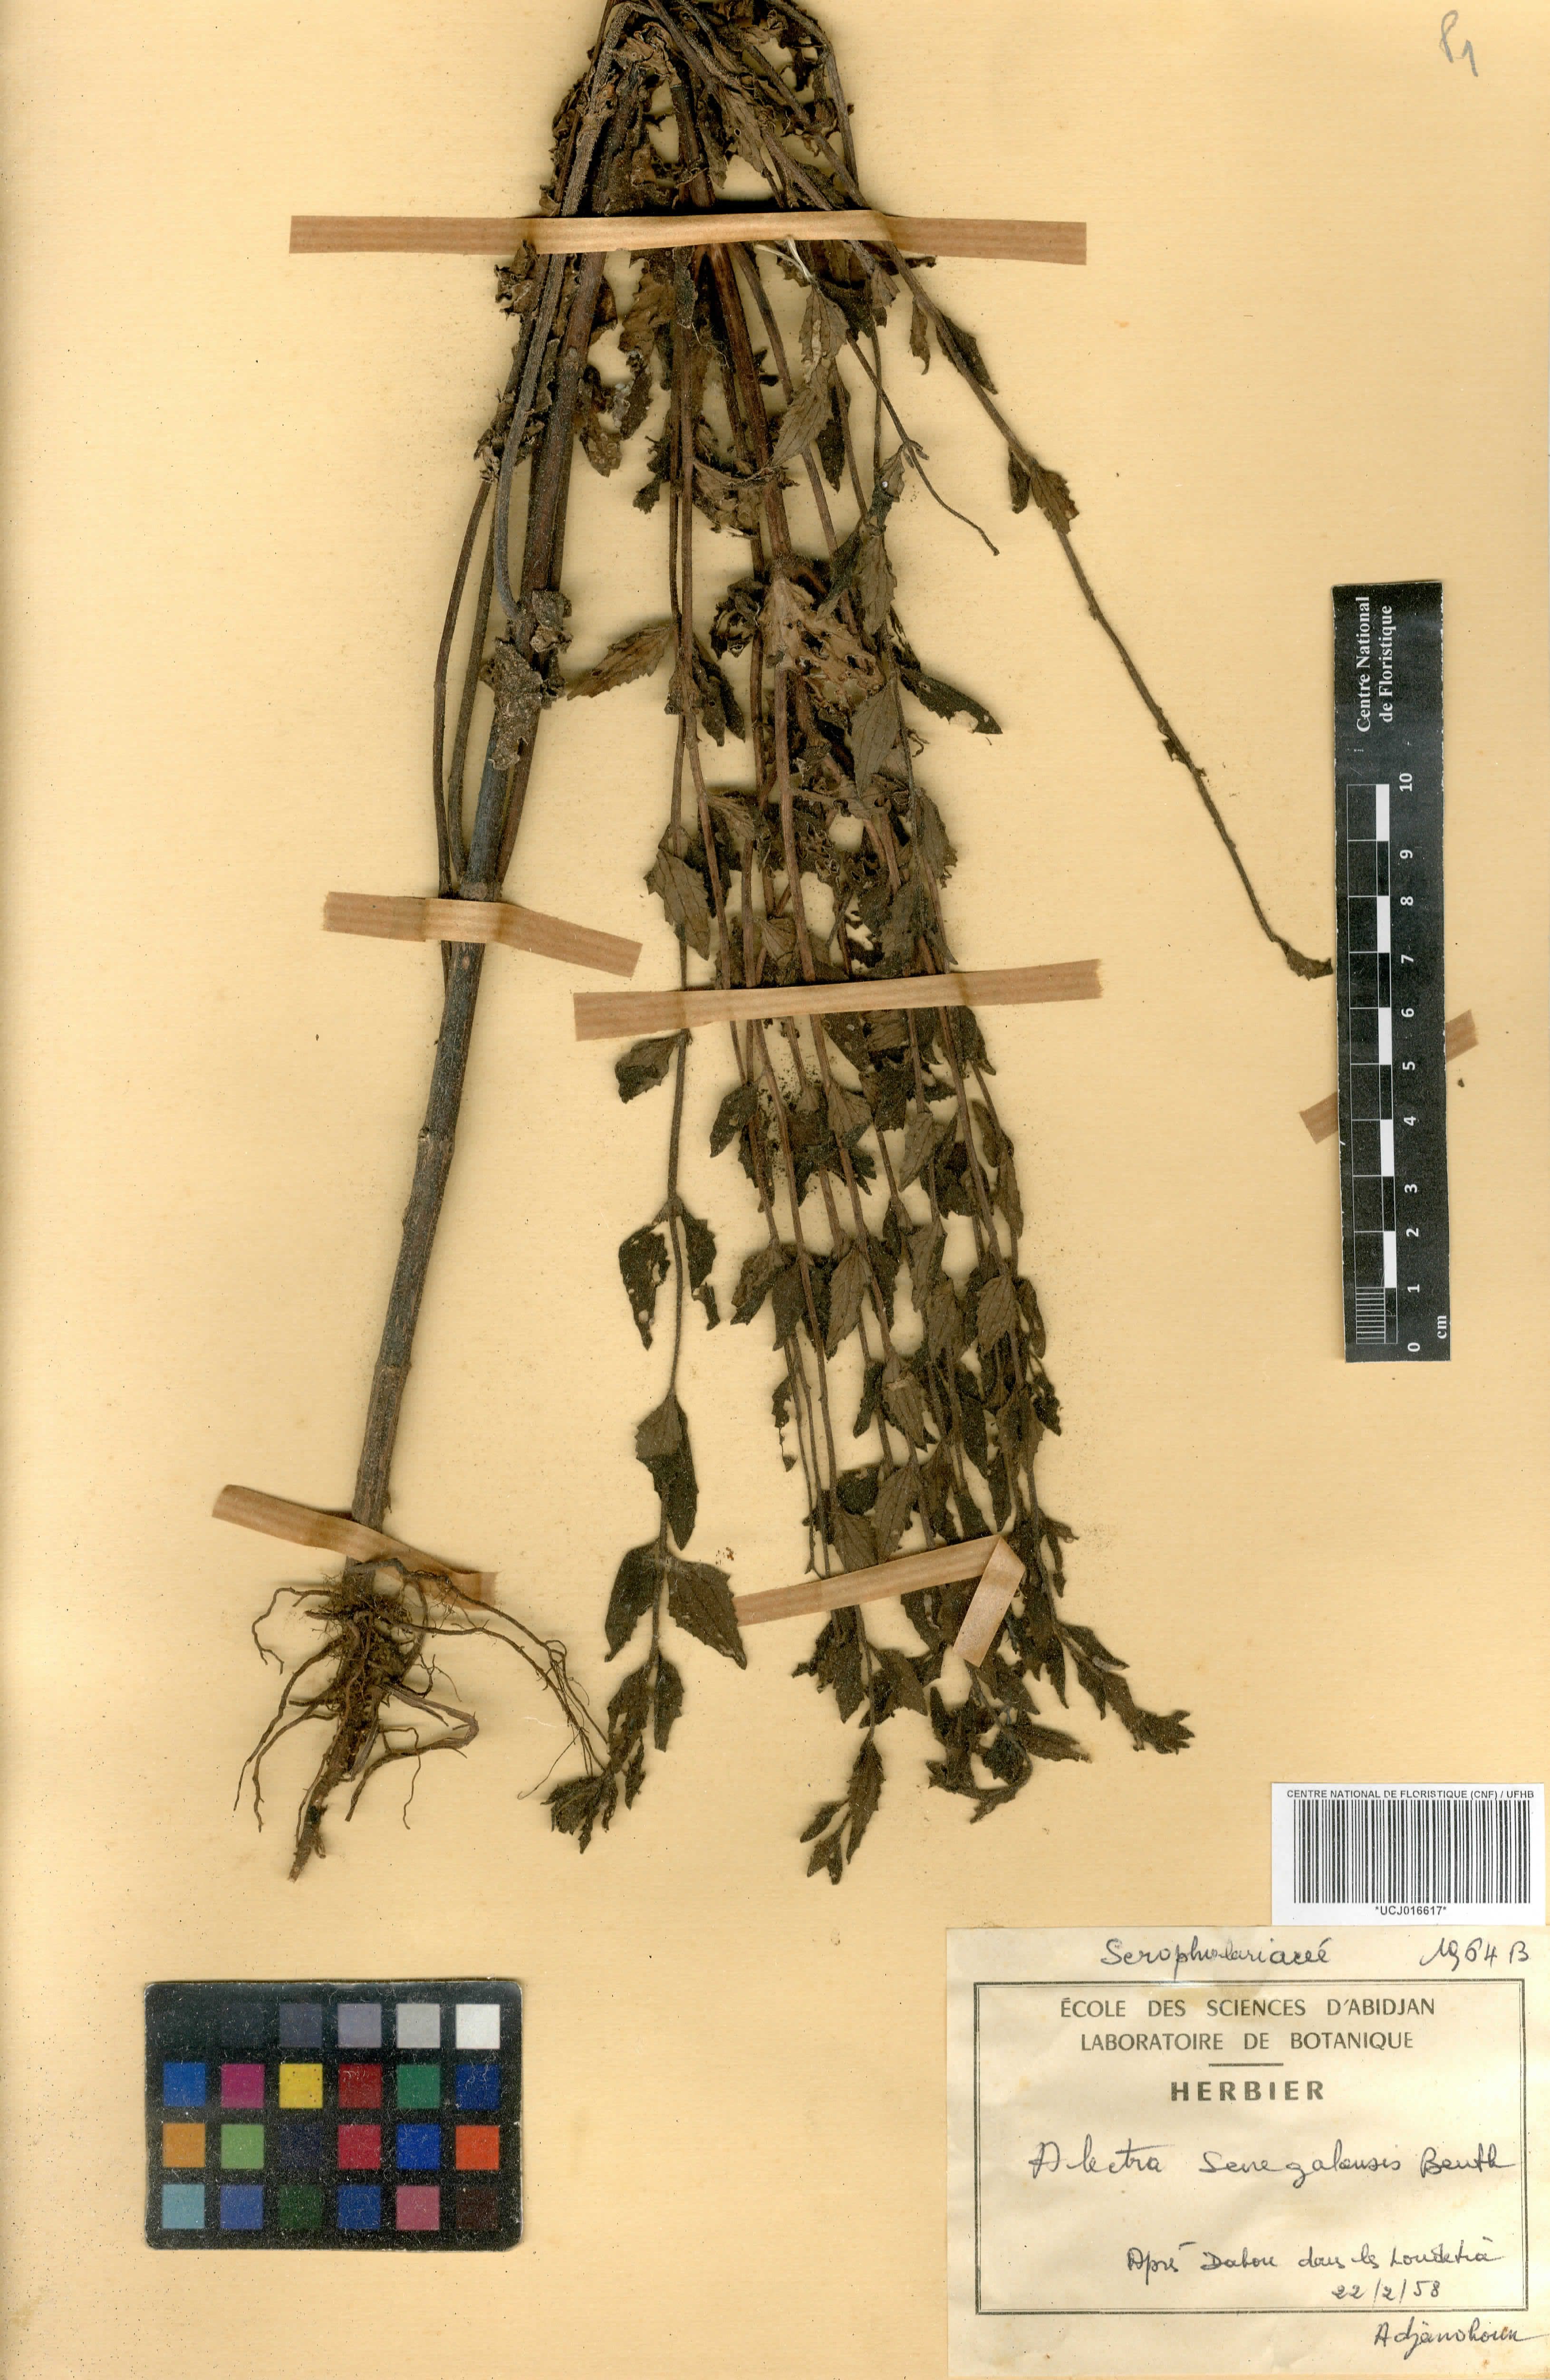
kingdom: Plantae
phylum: Tracheophyta
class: Magnoliopsida
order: Lamiales
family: Orobanchaceae
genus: Alectra
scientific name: Alectra sessiliflora
